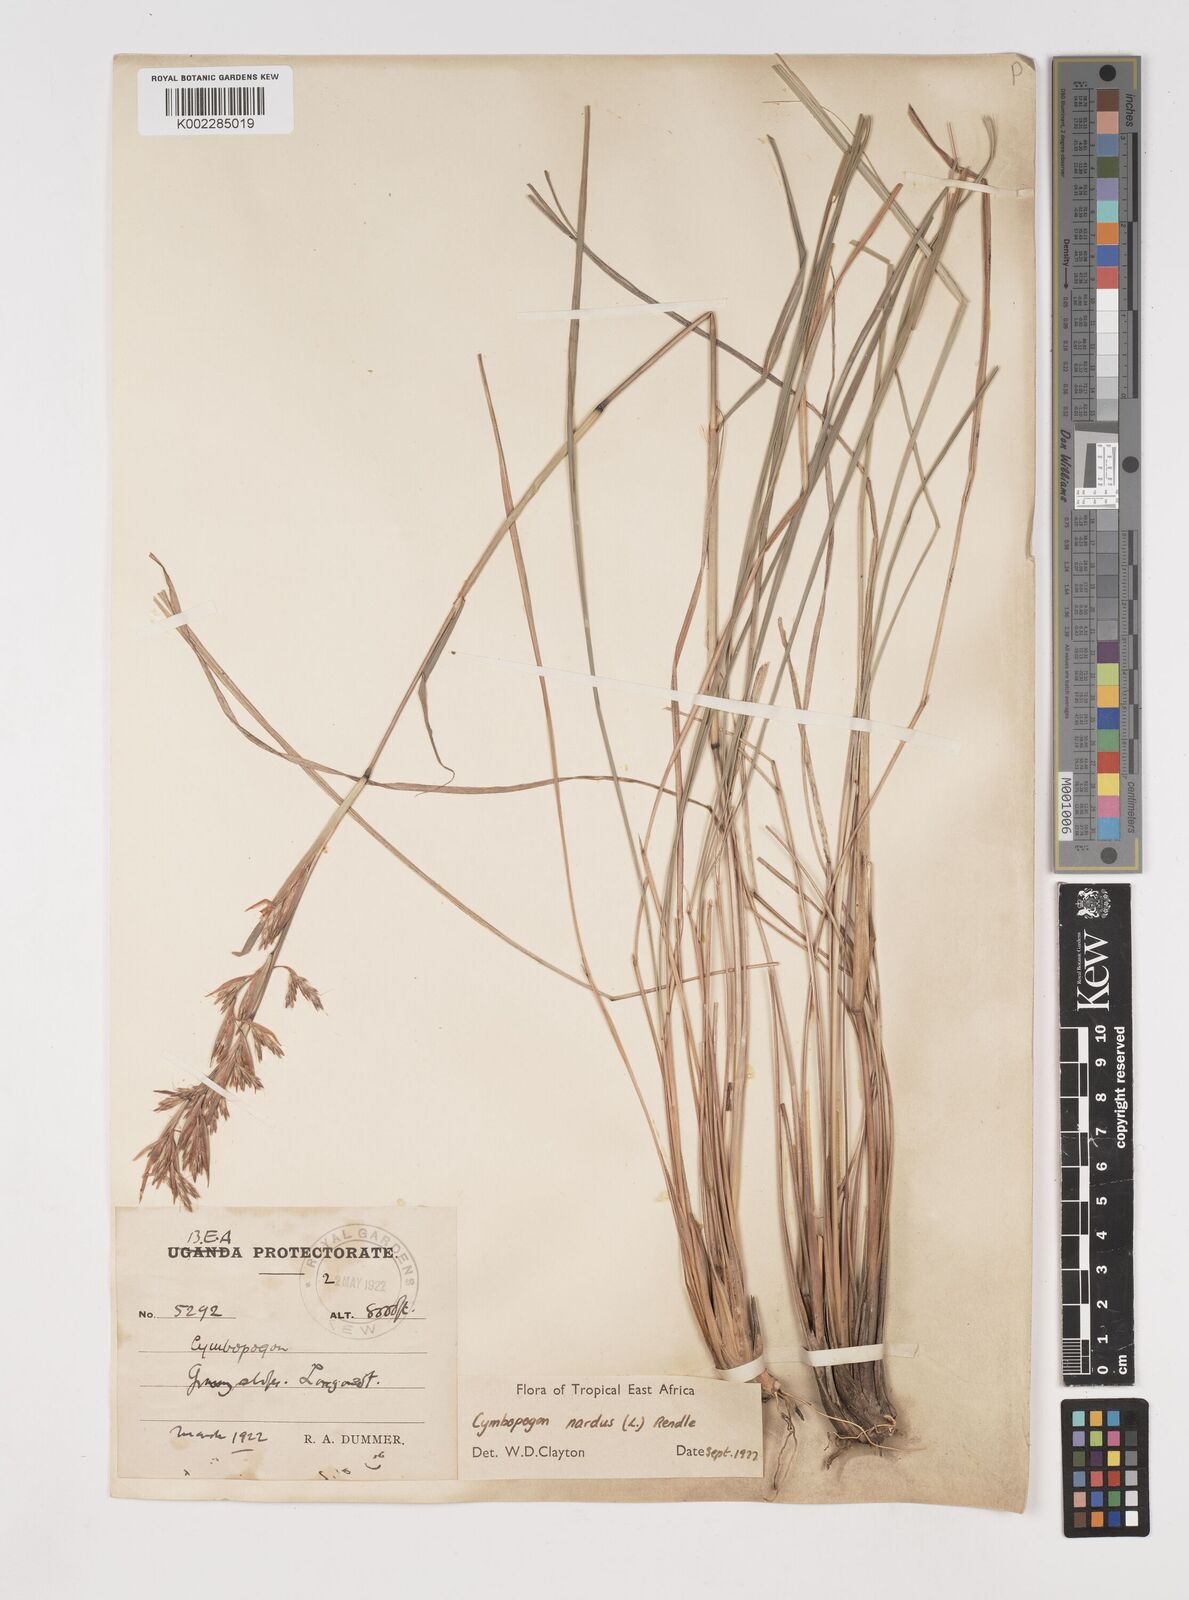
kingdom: Plantae
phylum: Tracheophyta
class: Liliopsida
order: Poales
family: Poaceae
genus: Cymbopogon
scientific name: Cymbopogon nardus
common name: Giant turpentine grass
